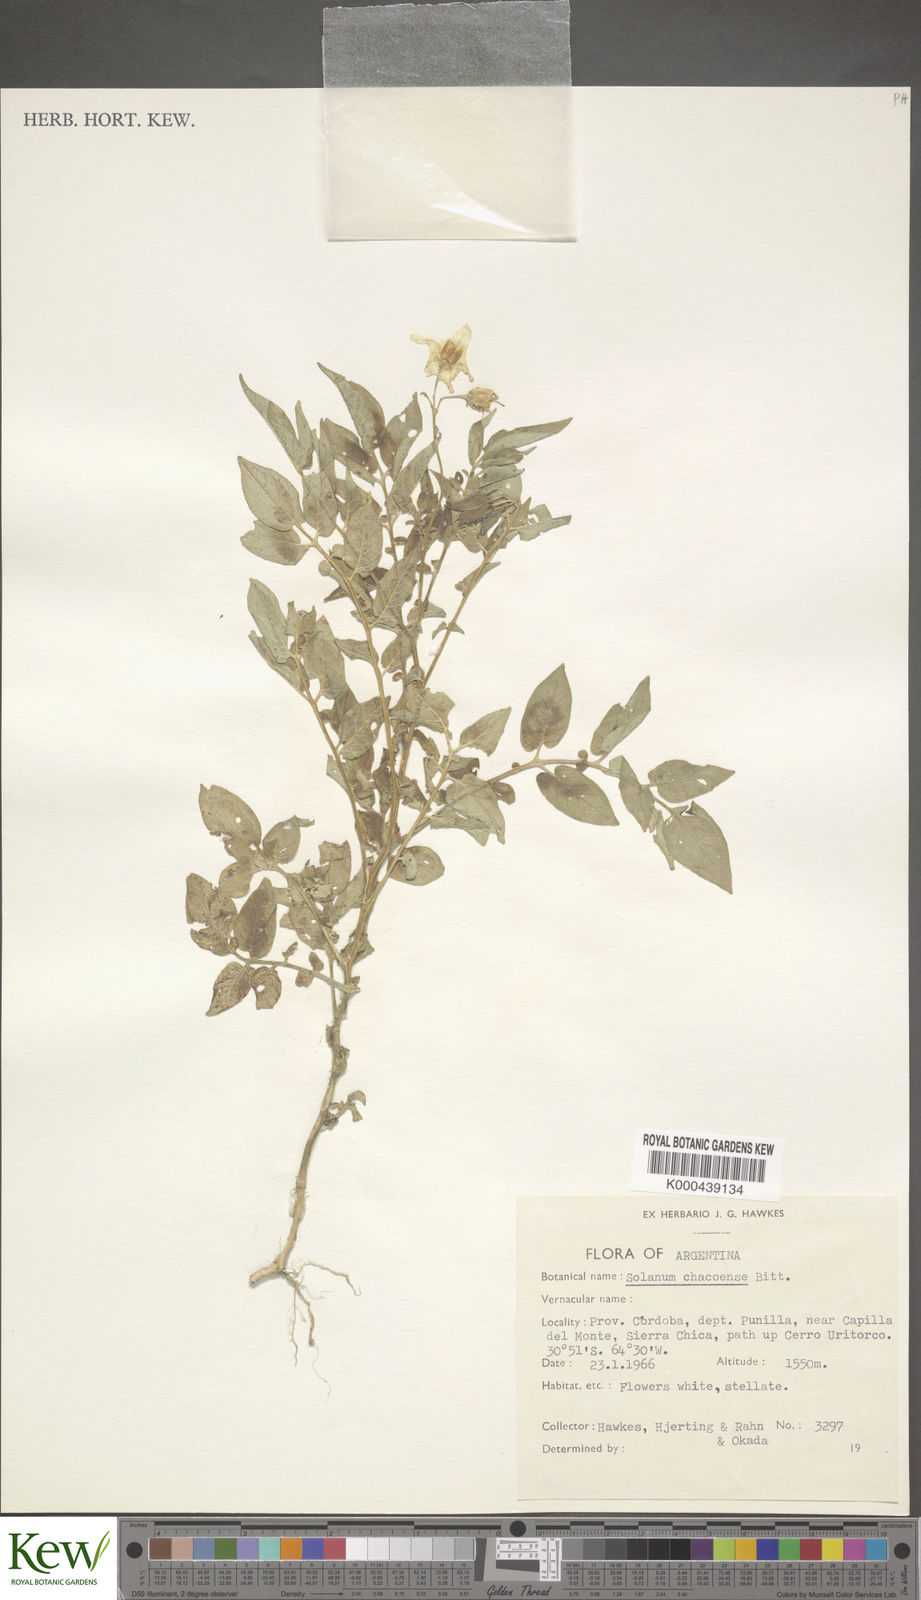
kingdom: Plantae
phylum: Tracheophyta
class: Magnoliopsida
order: Solanales
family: Solanaceae
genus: Solanum
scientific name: Solanum chacoense
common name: Chaco potato
